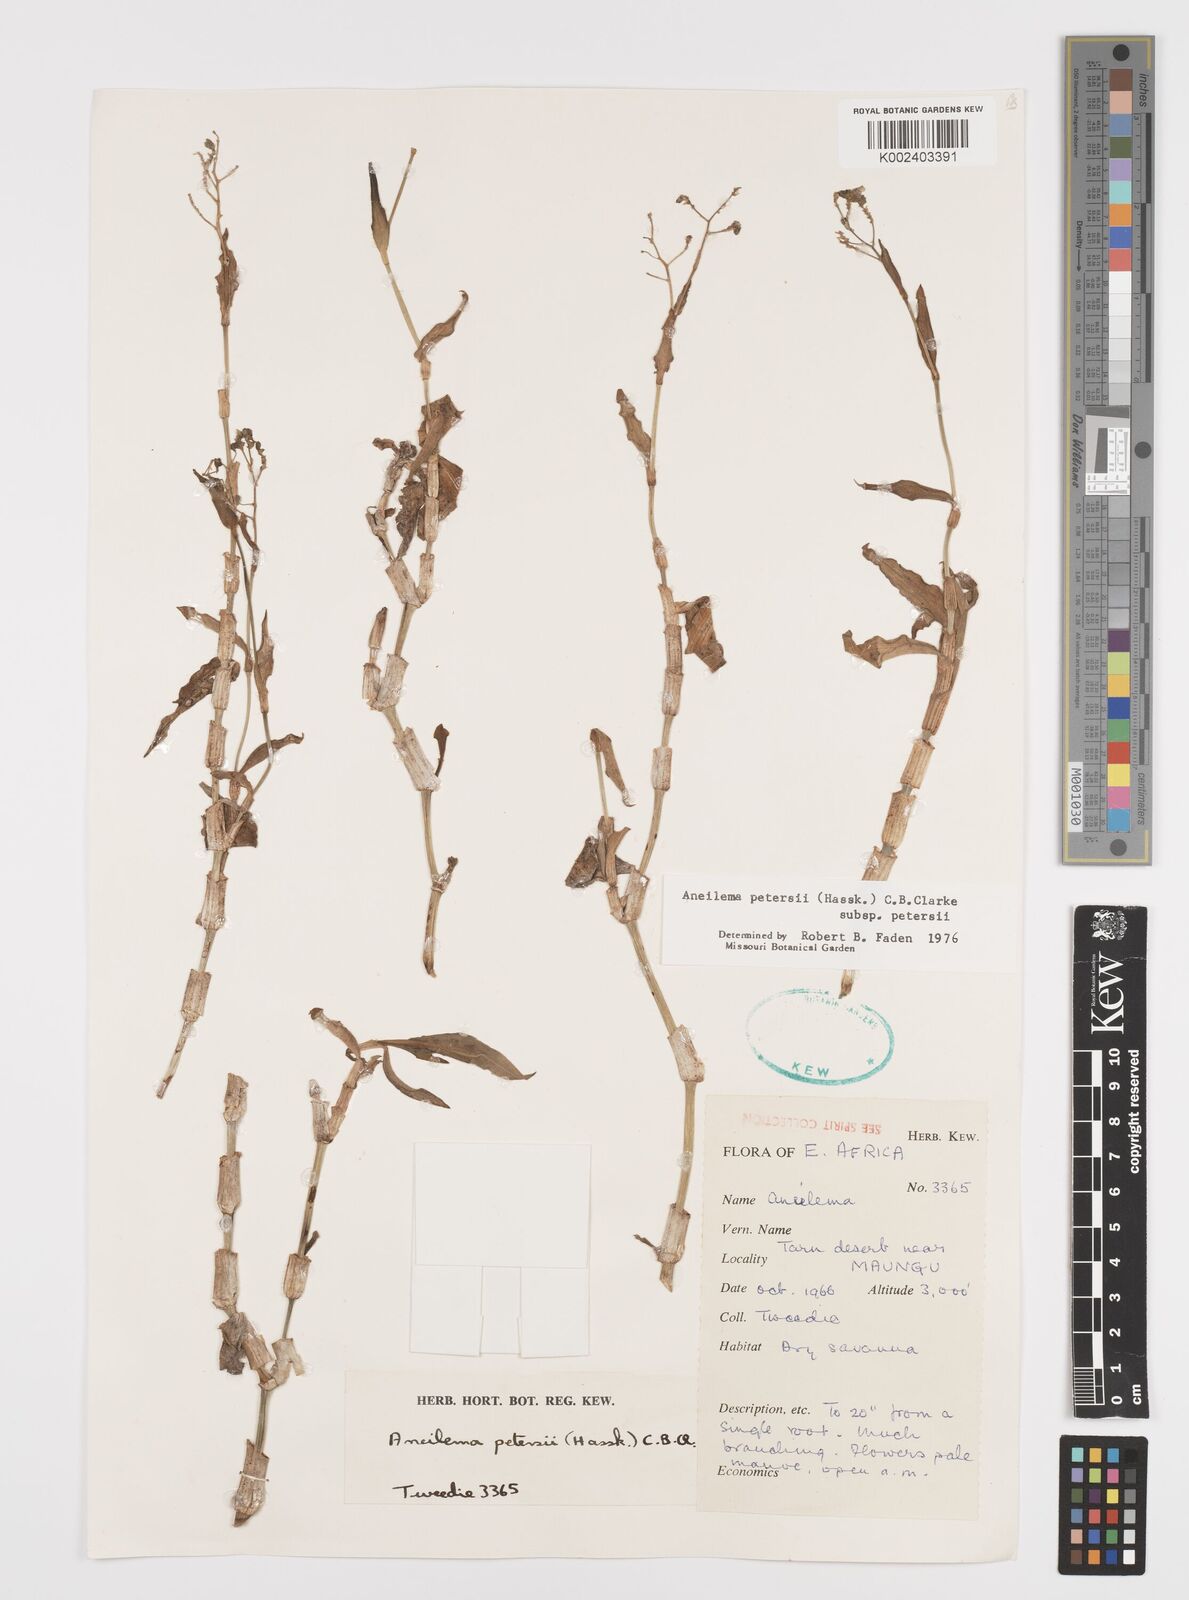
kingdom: Plantae
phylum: Tracheophyta
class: Liliopsida
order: Commelinales
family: Commelinaceae
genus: Aneilema
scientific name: Aneilema petersii
